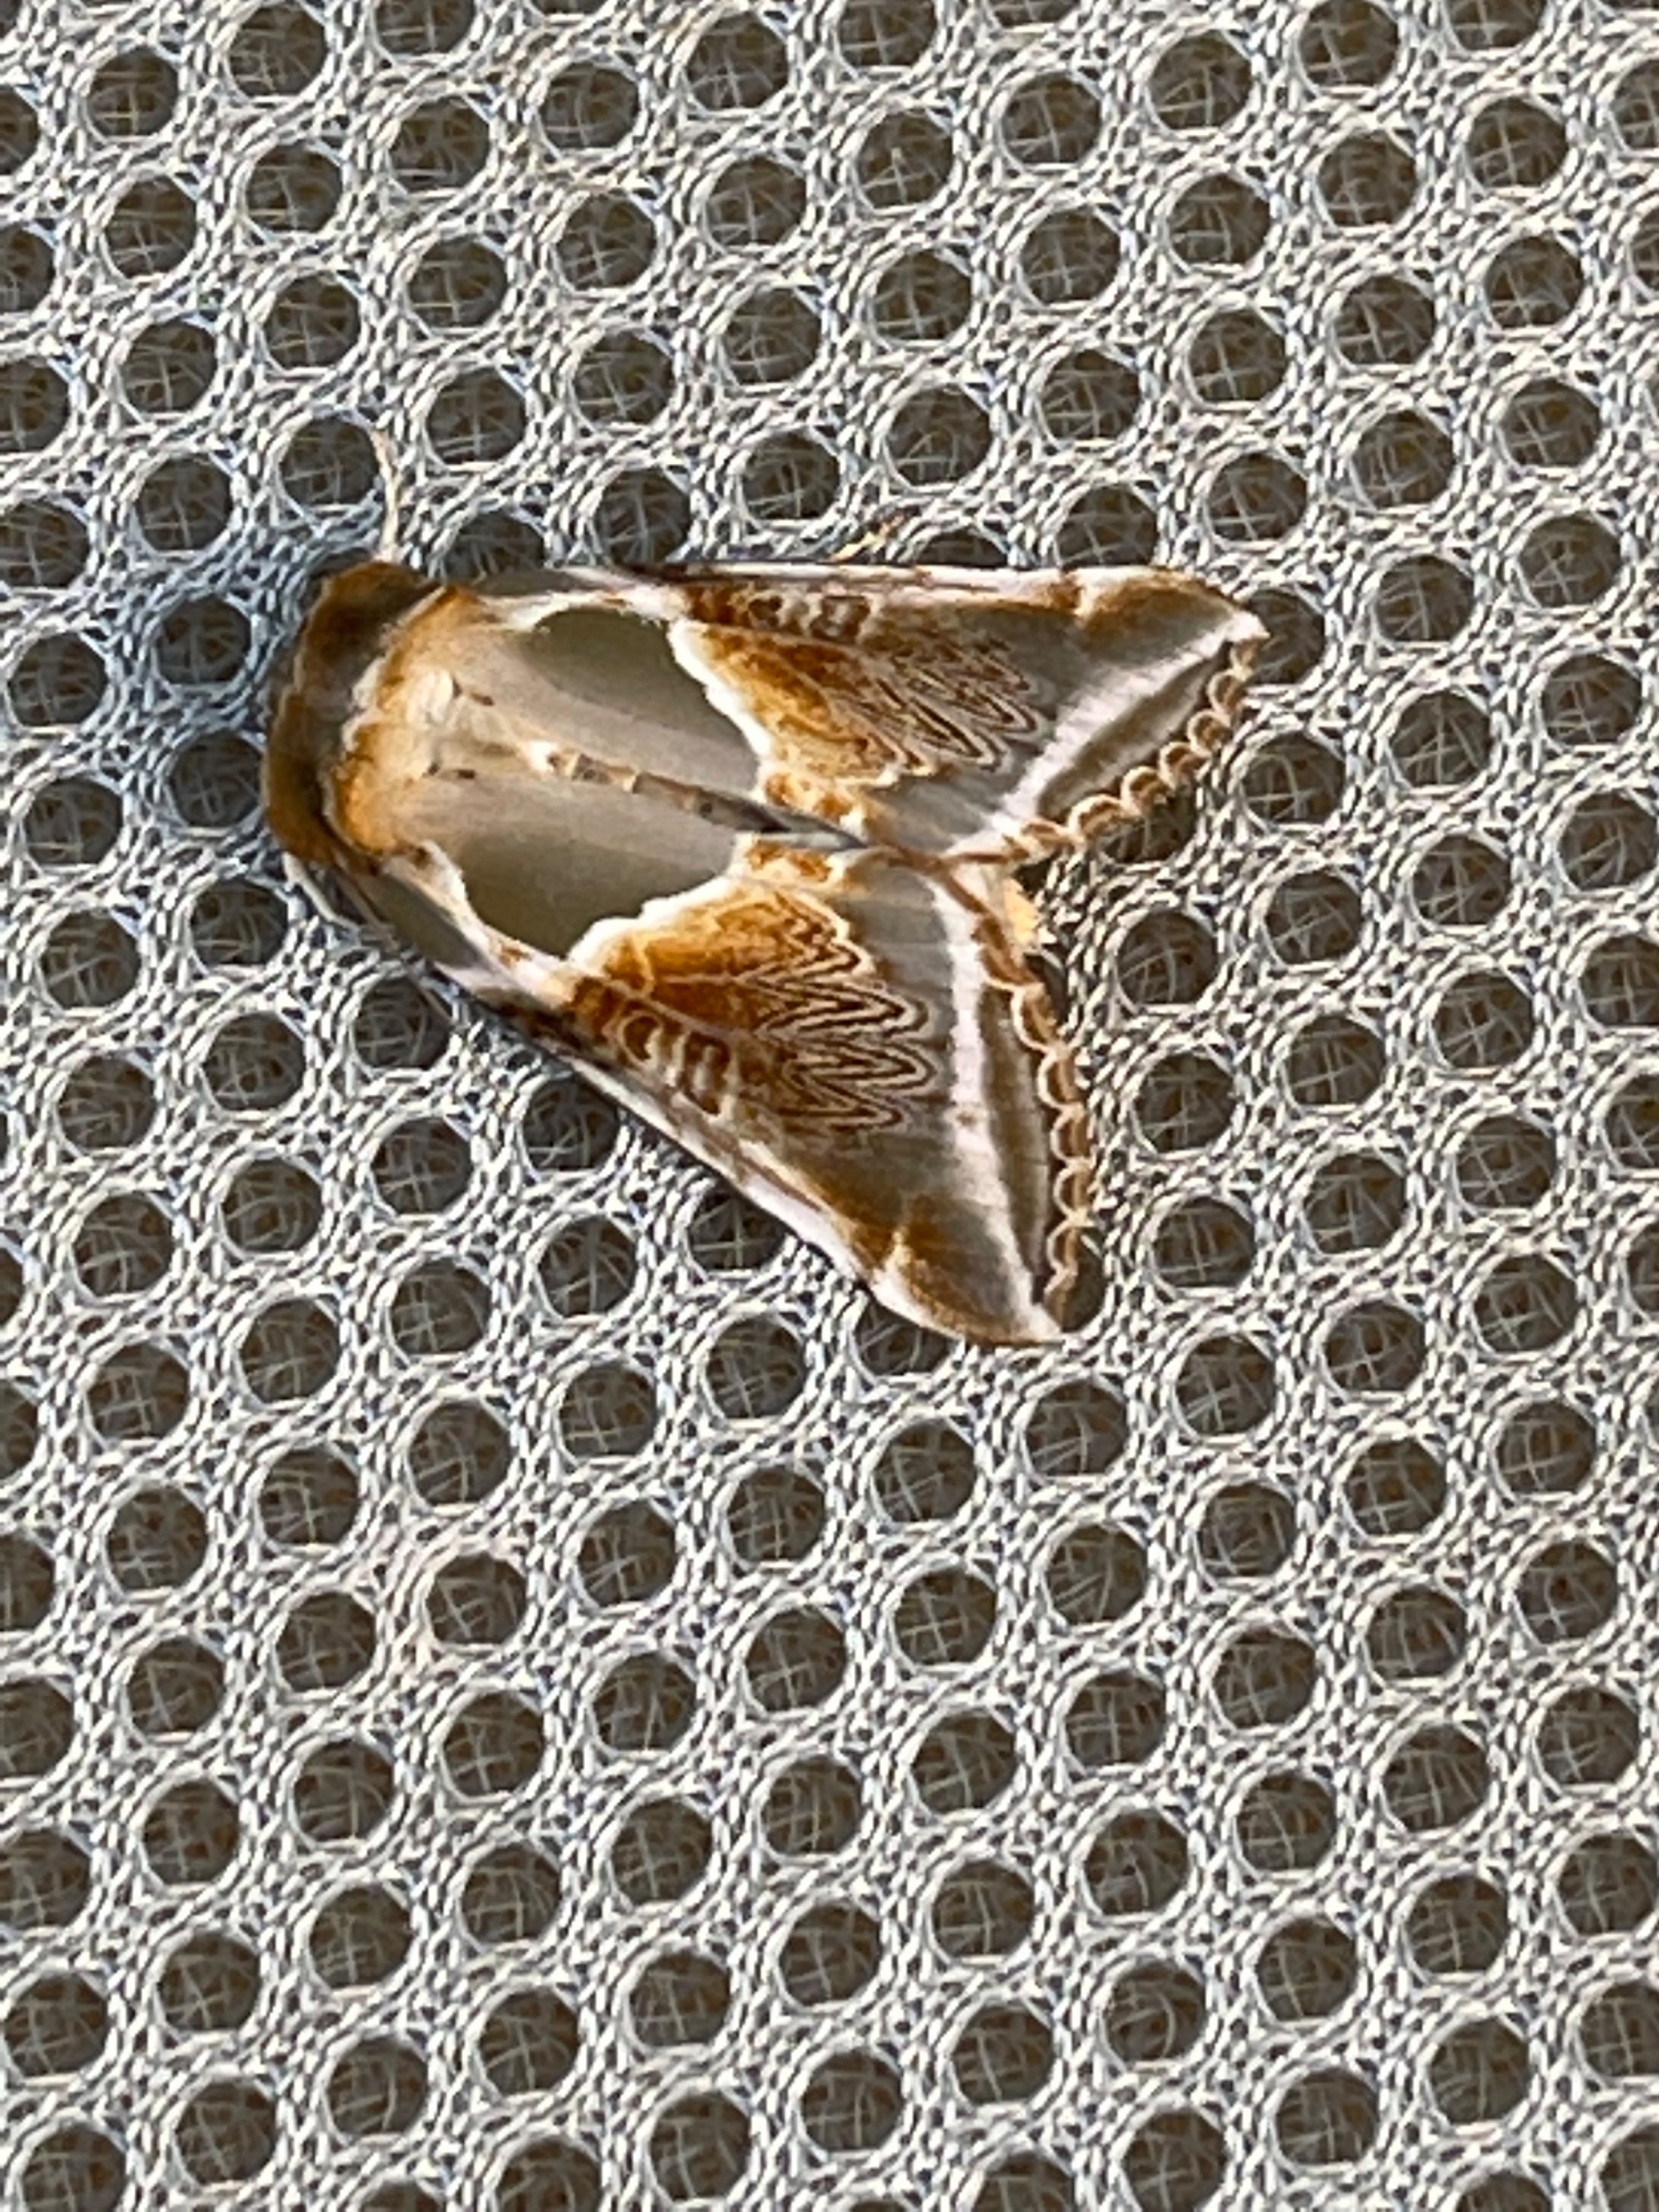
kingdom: Animalia
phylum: Arthropoda
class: Insecta
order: Lepidoptera
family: Drepanidae
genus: Habrosyne
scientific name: Habrosyne pyritoides
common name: Klyngerspinder
